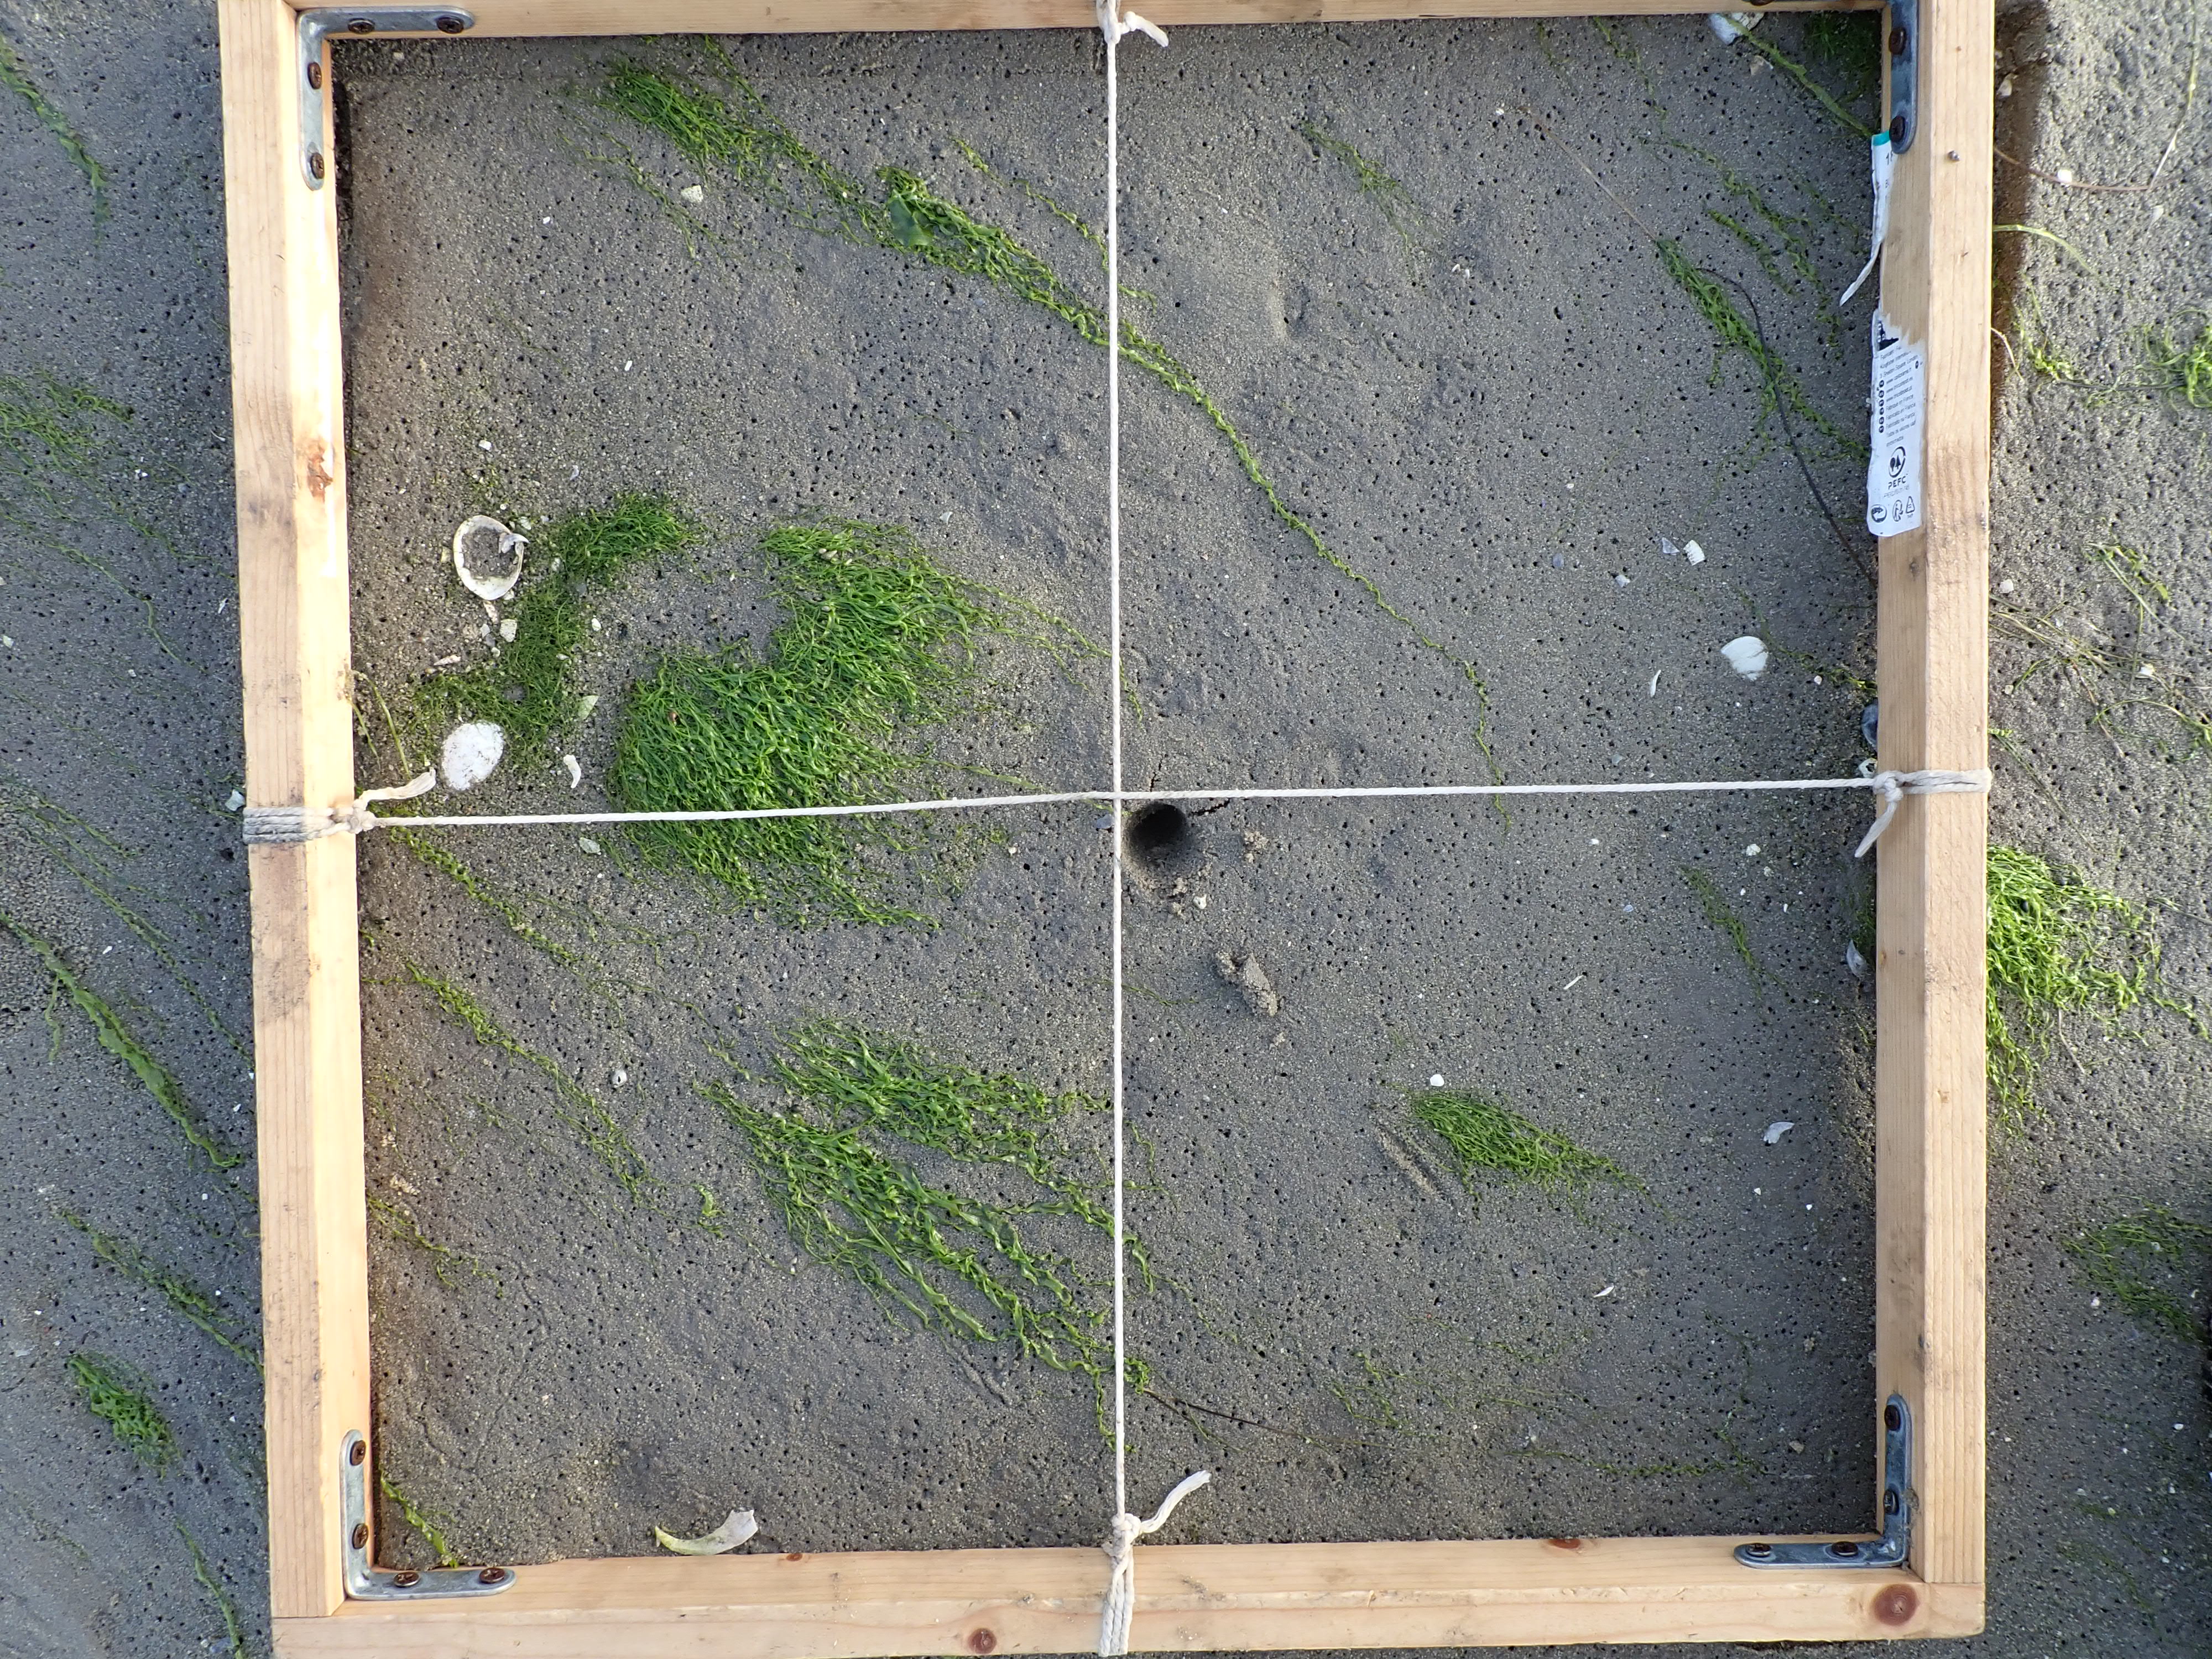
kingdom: Plantae
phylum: Chlorophyta
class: Ulvophyceae
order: Ulvales
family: Ulvaceae
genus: Ulva
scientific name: Ulva
